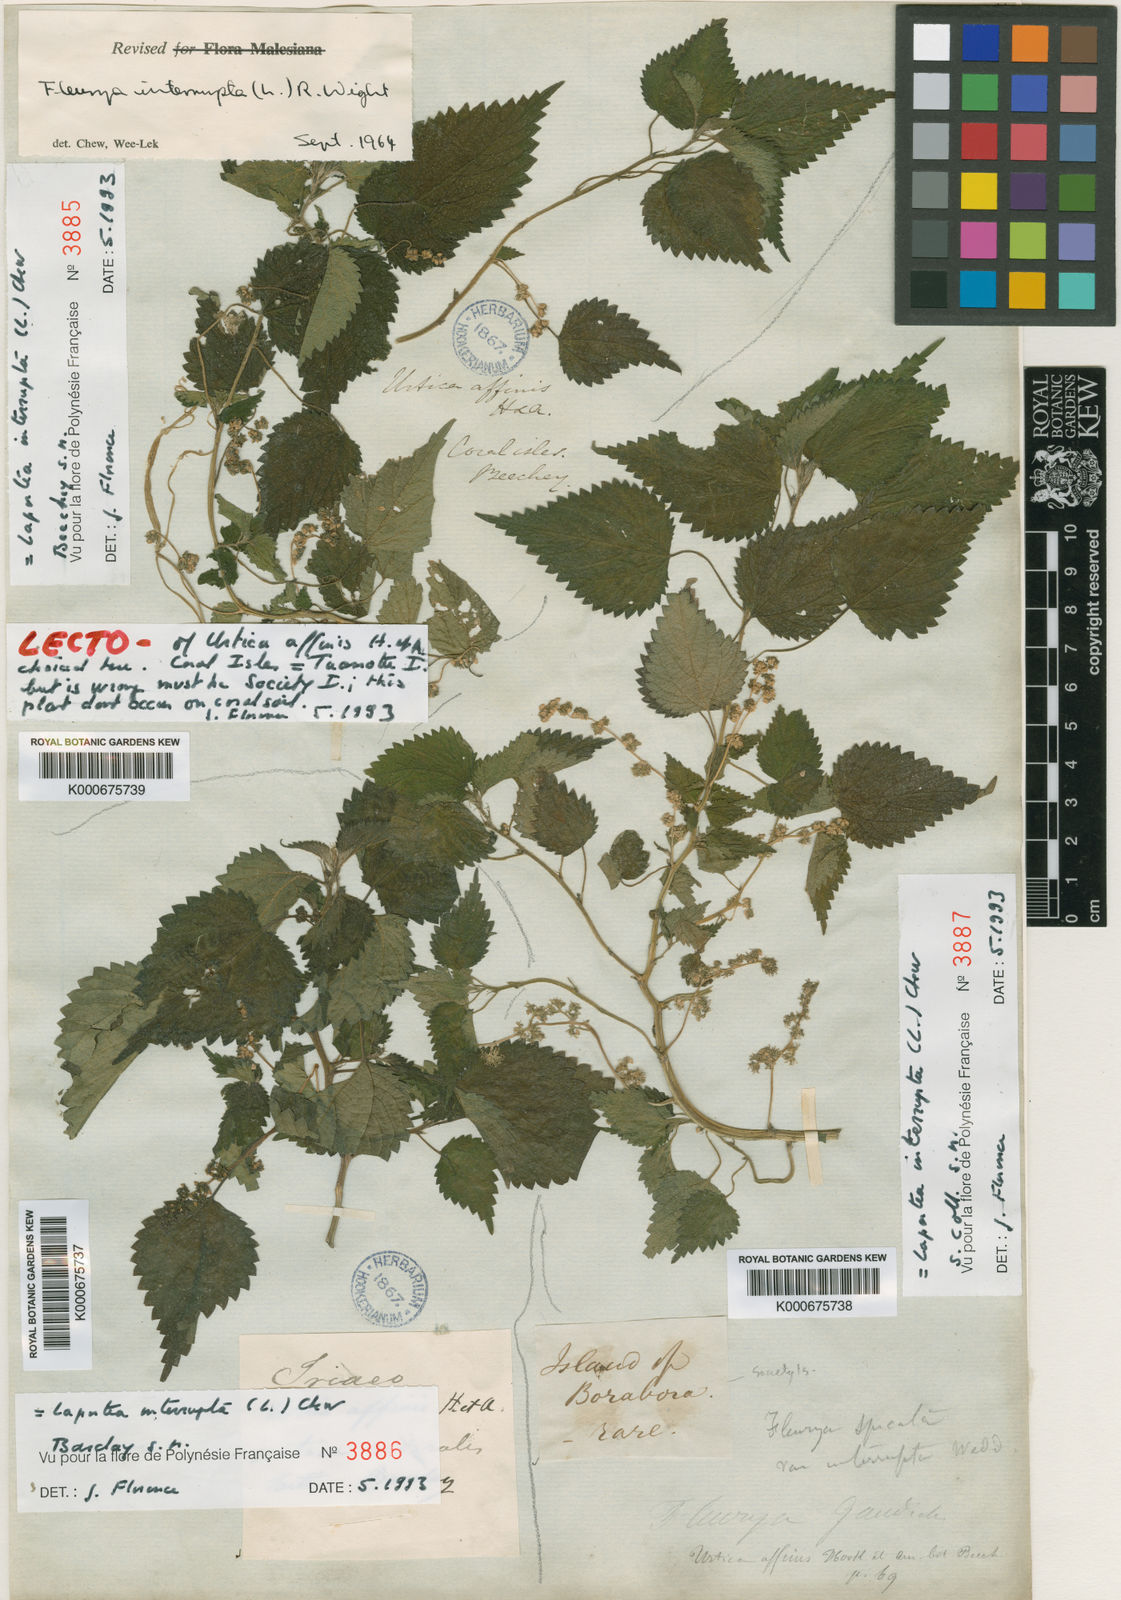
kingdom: Plantae
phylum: Tracheophyta
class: Magnoliopsida
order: Rosales
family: Urticaceae
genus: Laportea
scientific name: Laportea interrupta
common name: Hawaiian wood-nettle
